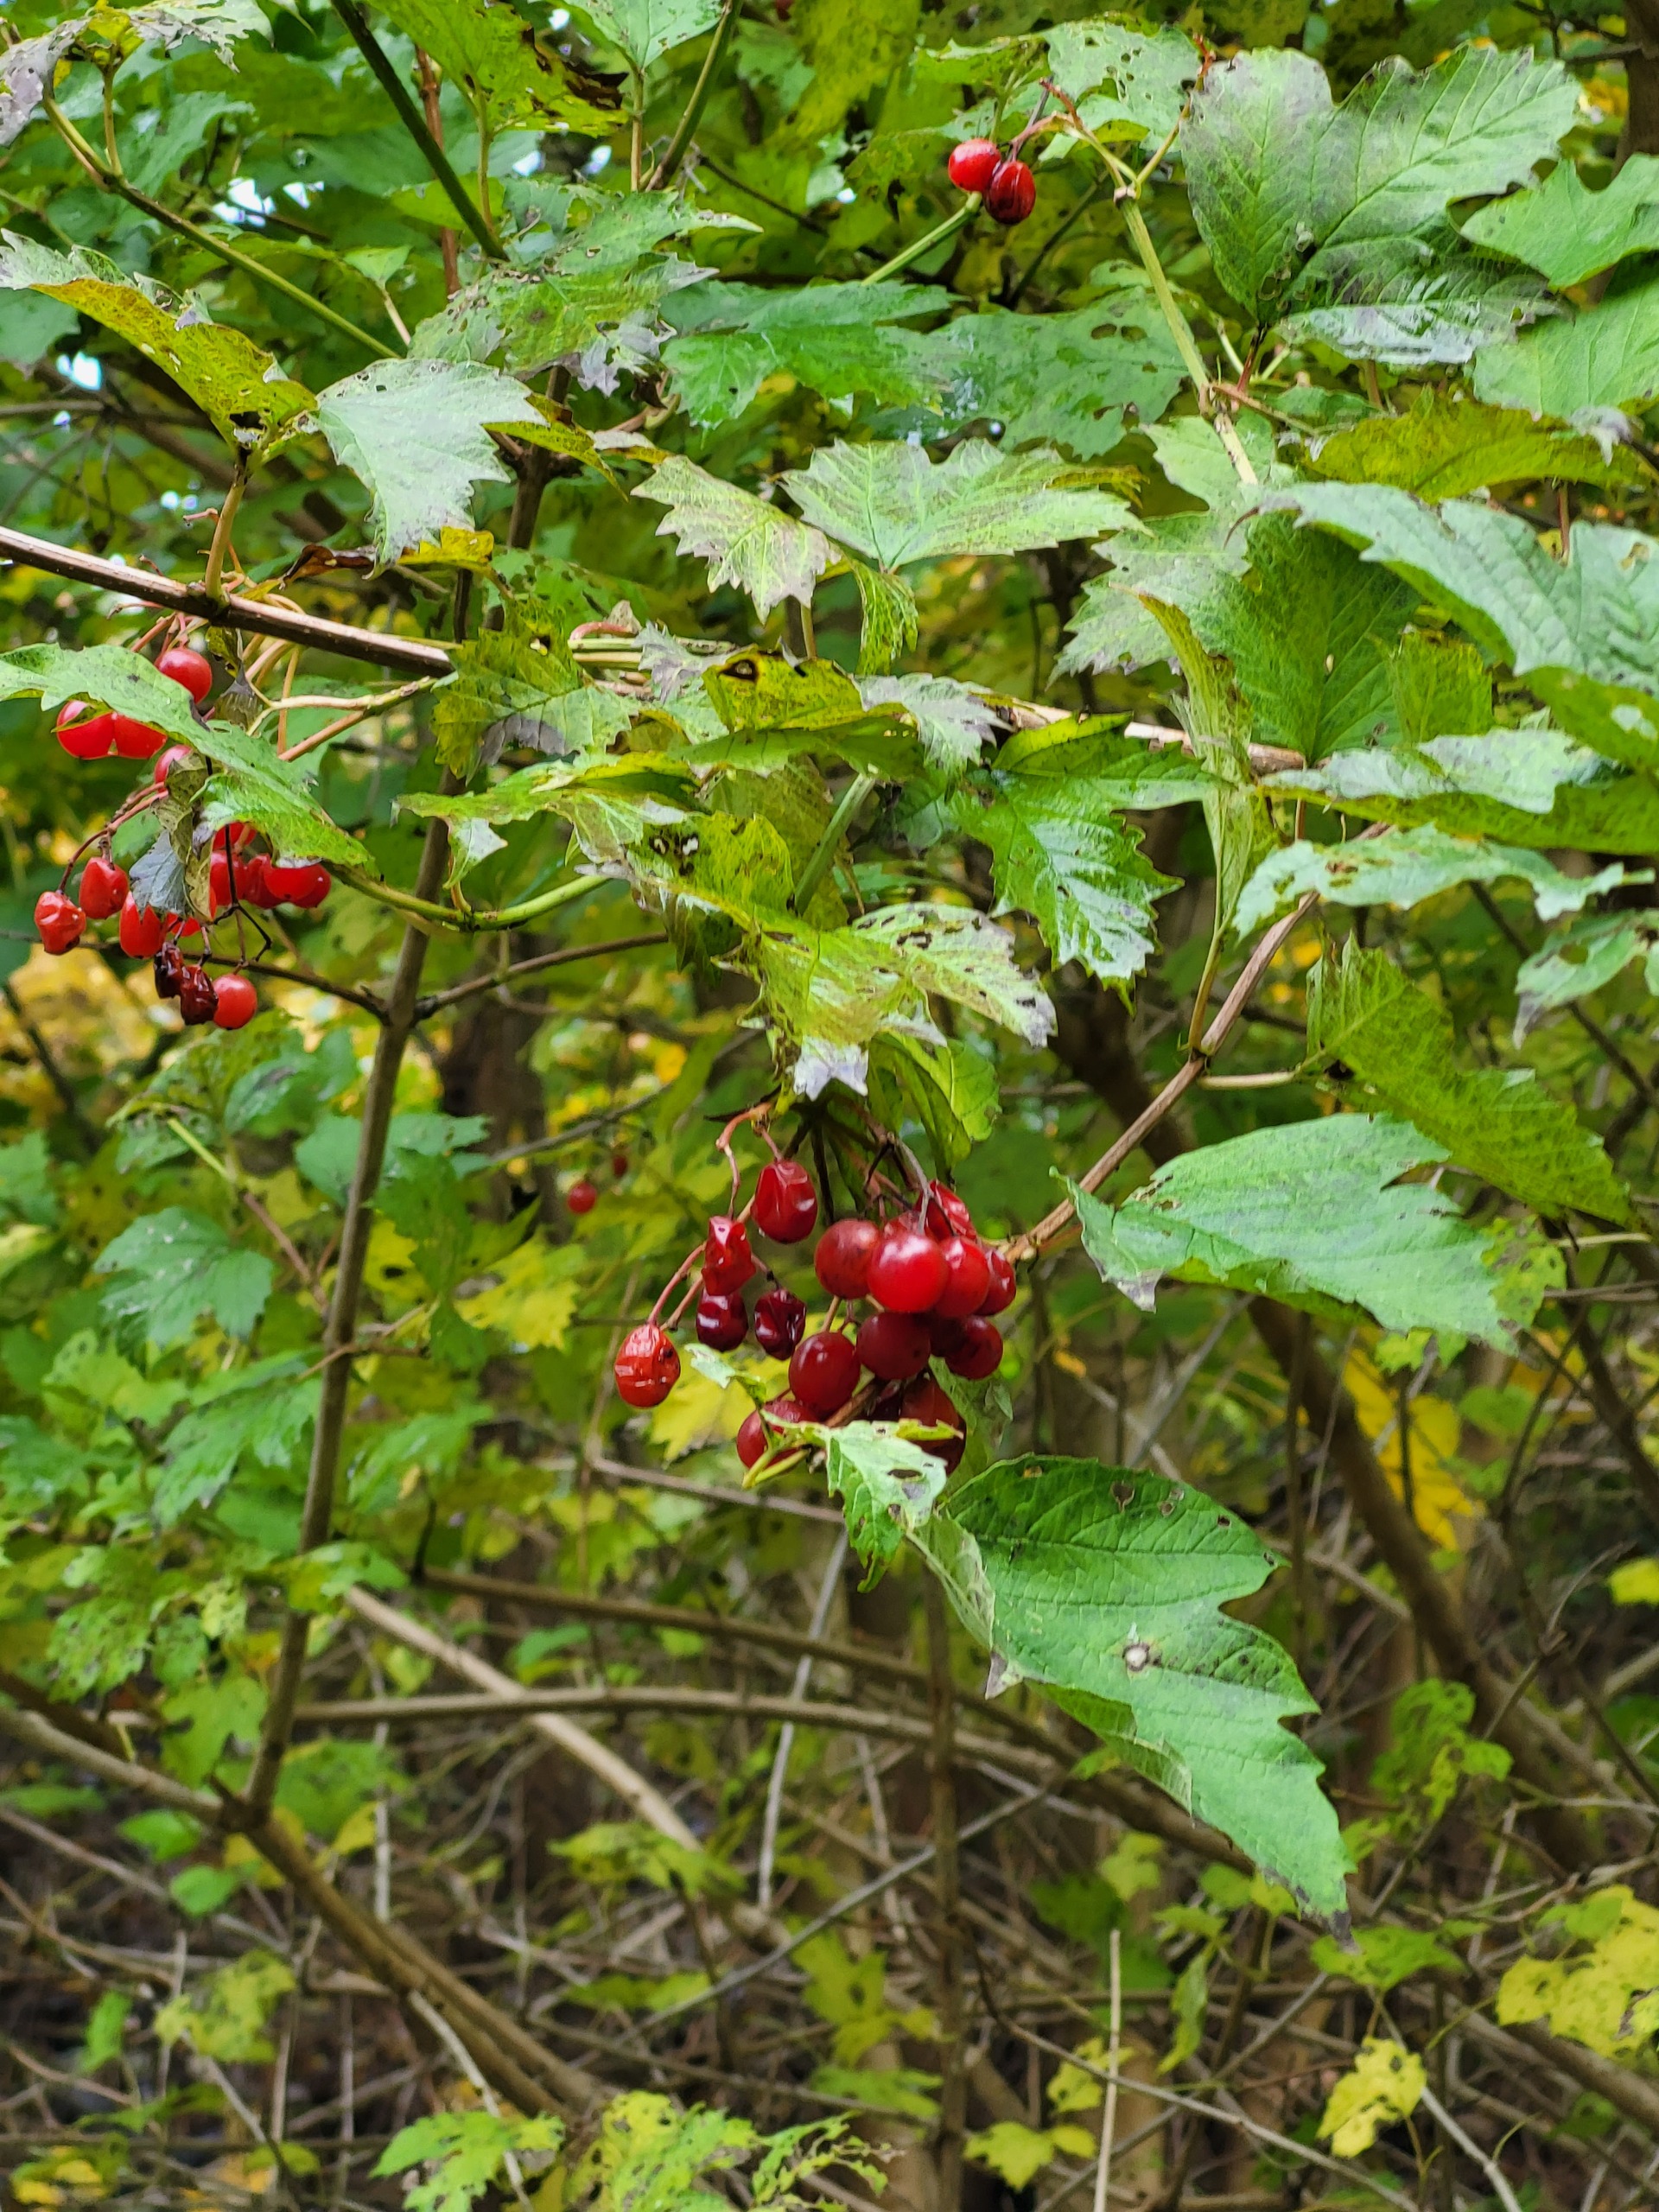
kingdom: Plantae
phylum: Tracheophyta
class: Magnoliopsida
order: Dipsacales
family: Viburnaceae
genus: Viburnum
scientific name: Viburnum opulus
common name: Kvalkved
